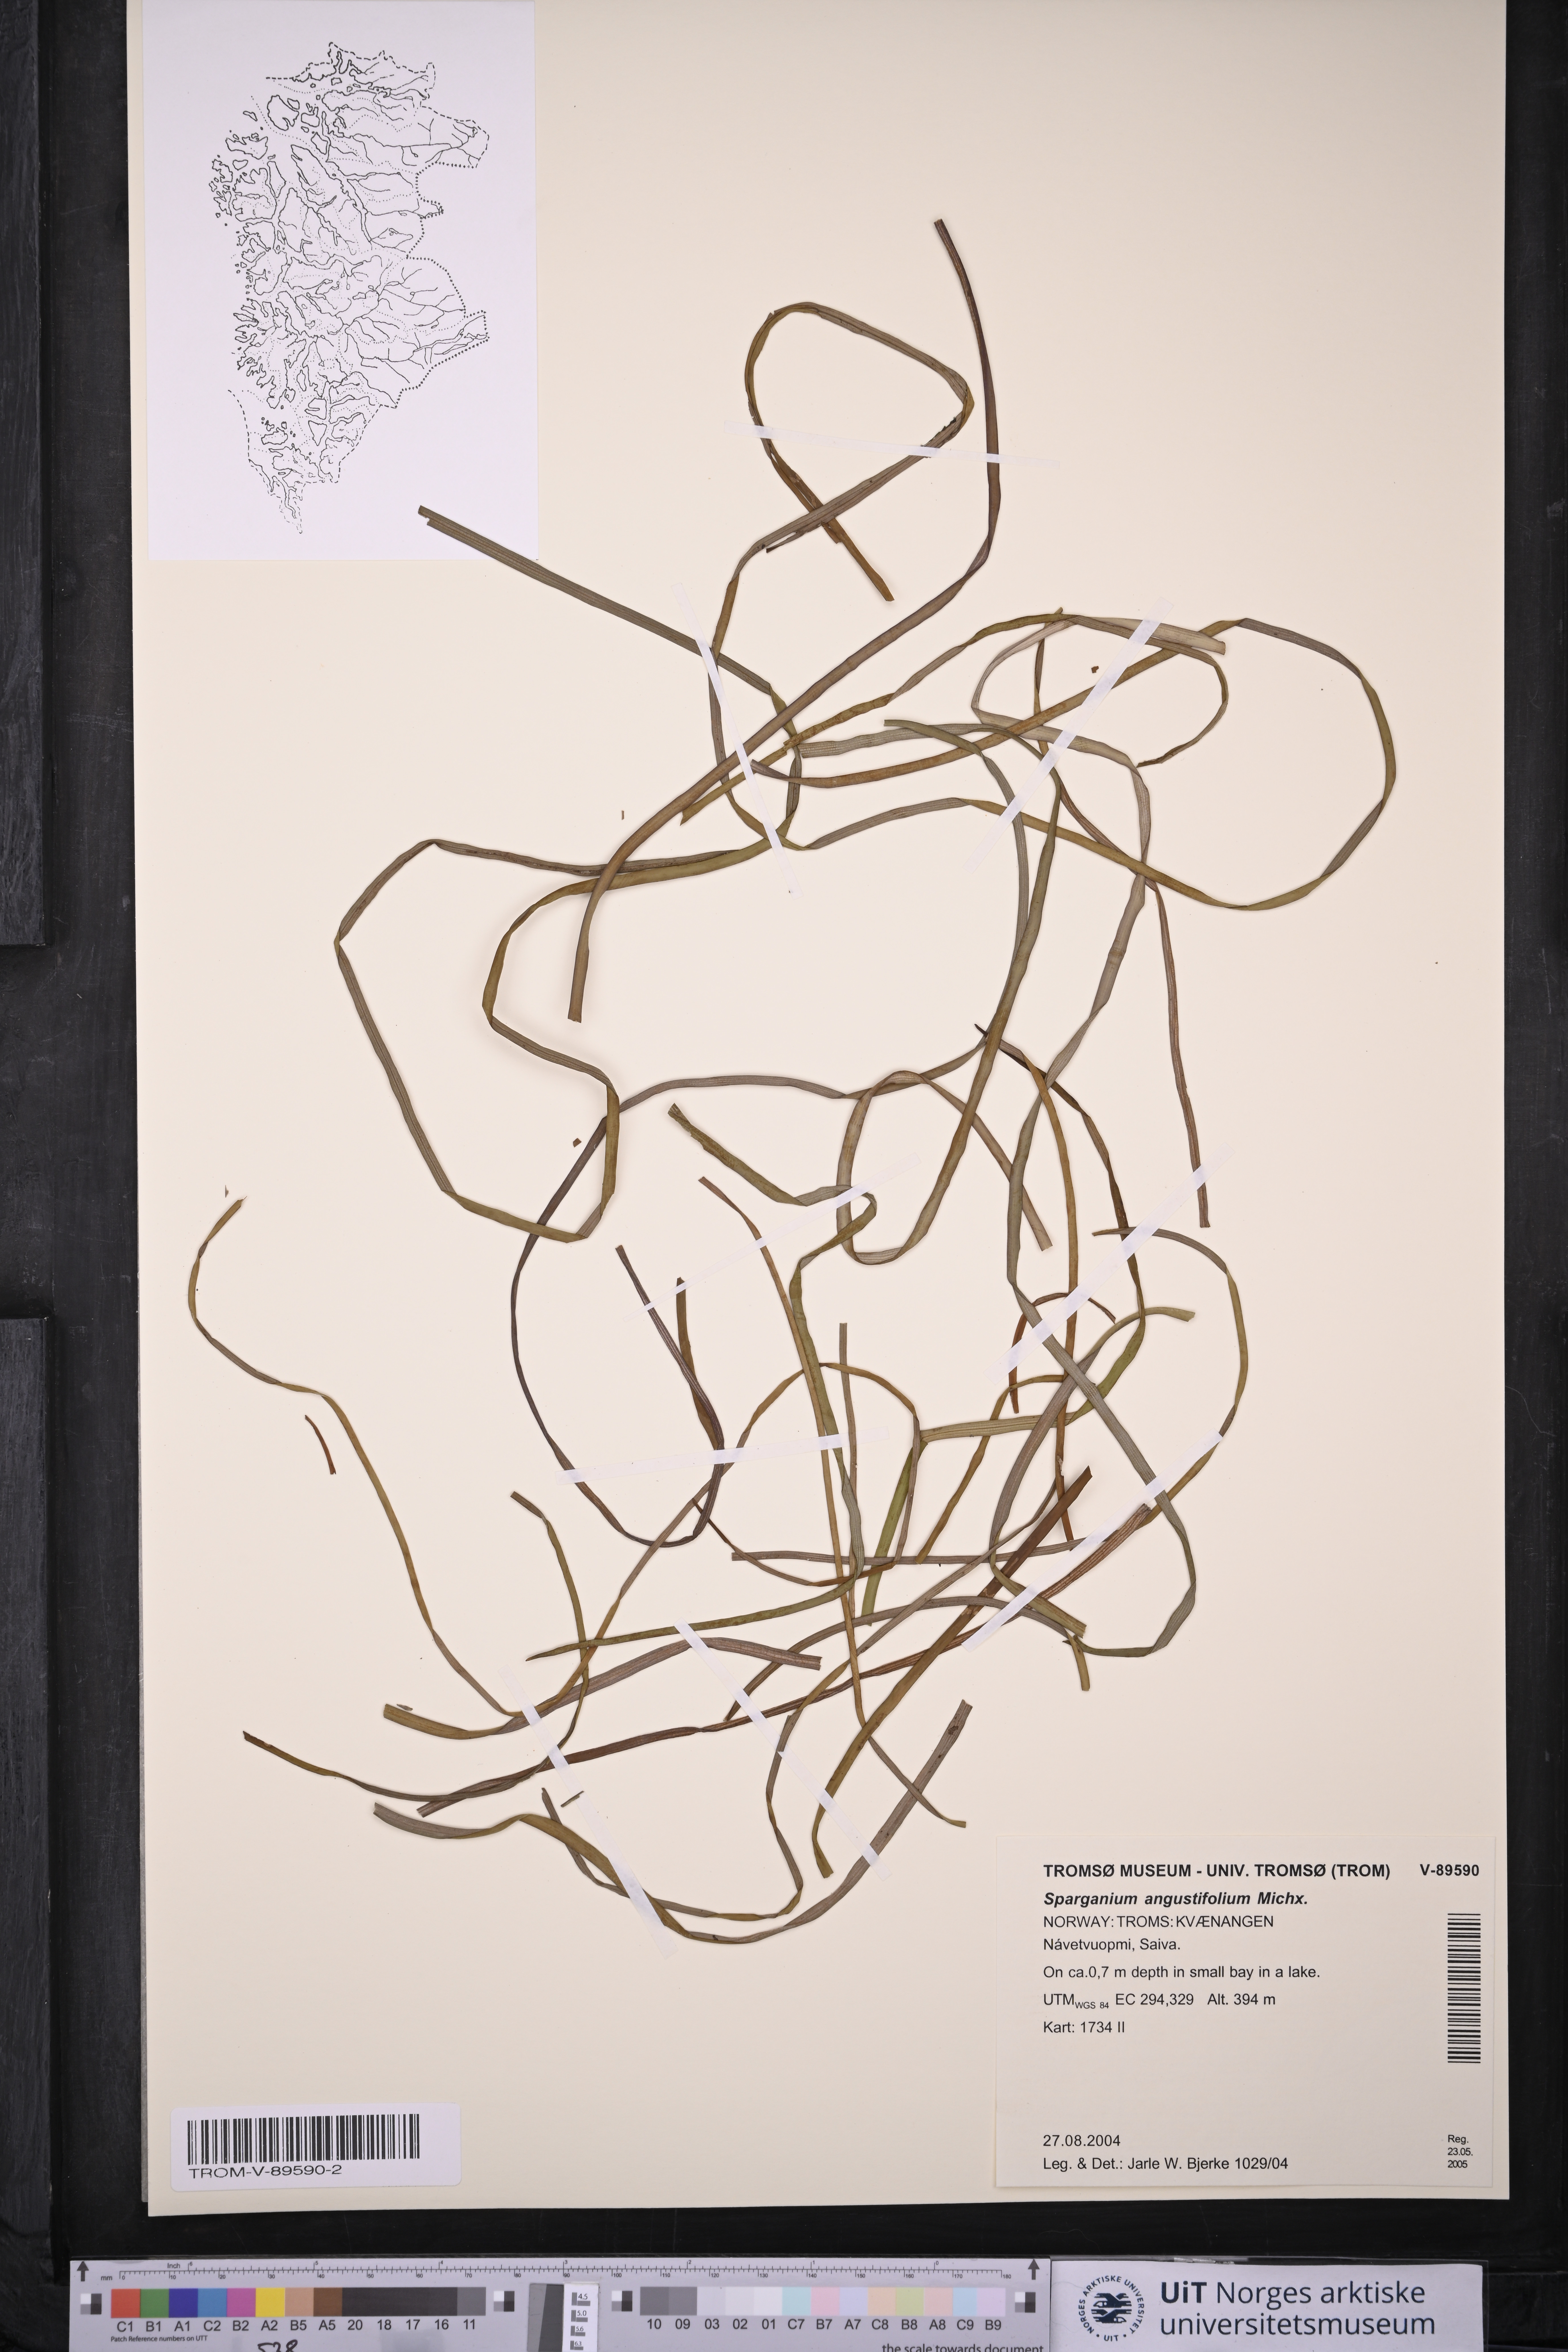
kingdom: Plantae
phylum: Tracheophyta
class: Liliopsida
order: Poales
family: Typhaceae
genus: Sparganium
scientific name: Sparganium angustifolium
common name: Floating bur-reed
